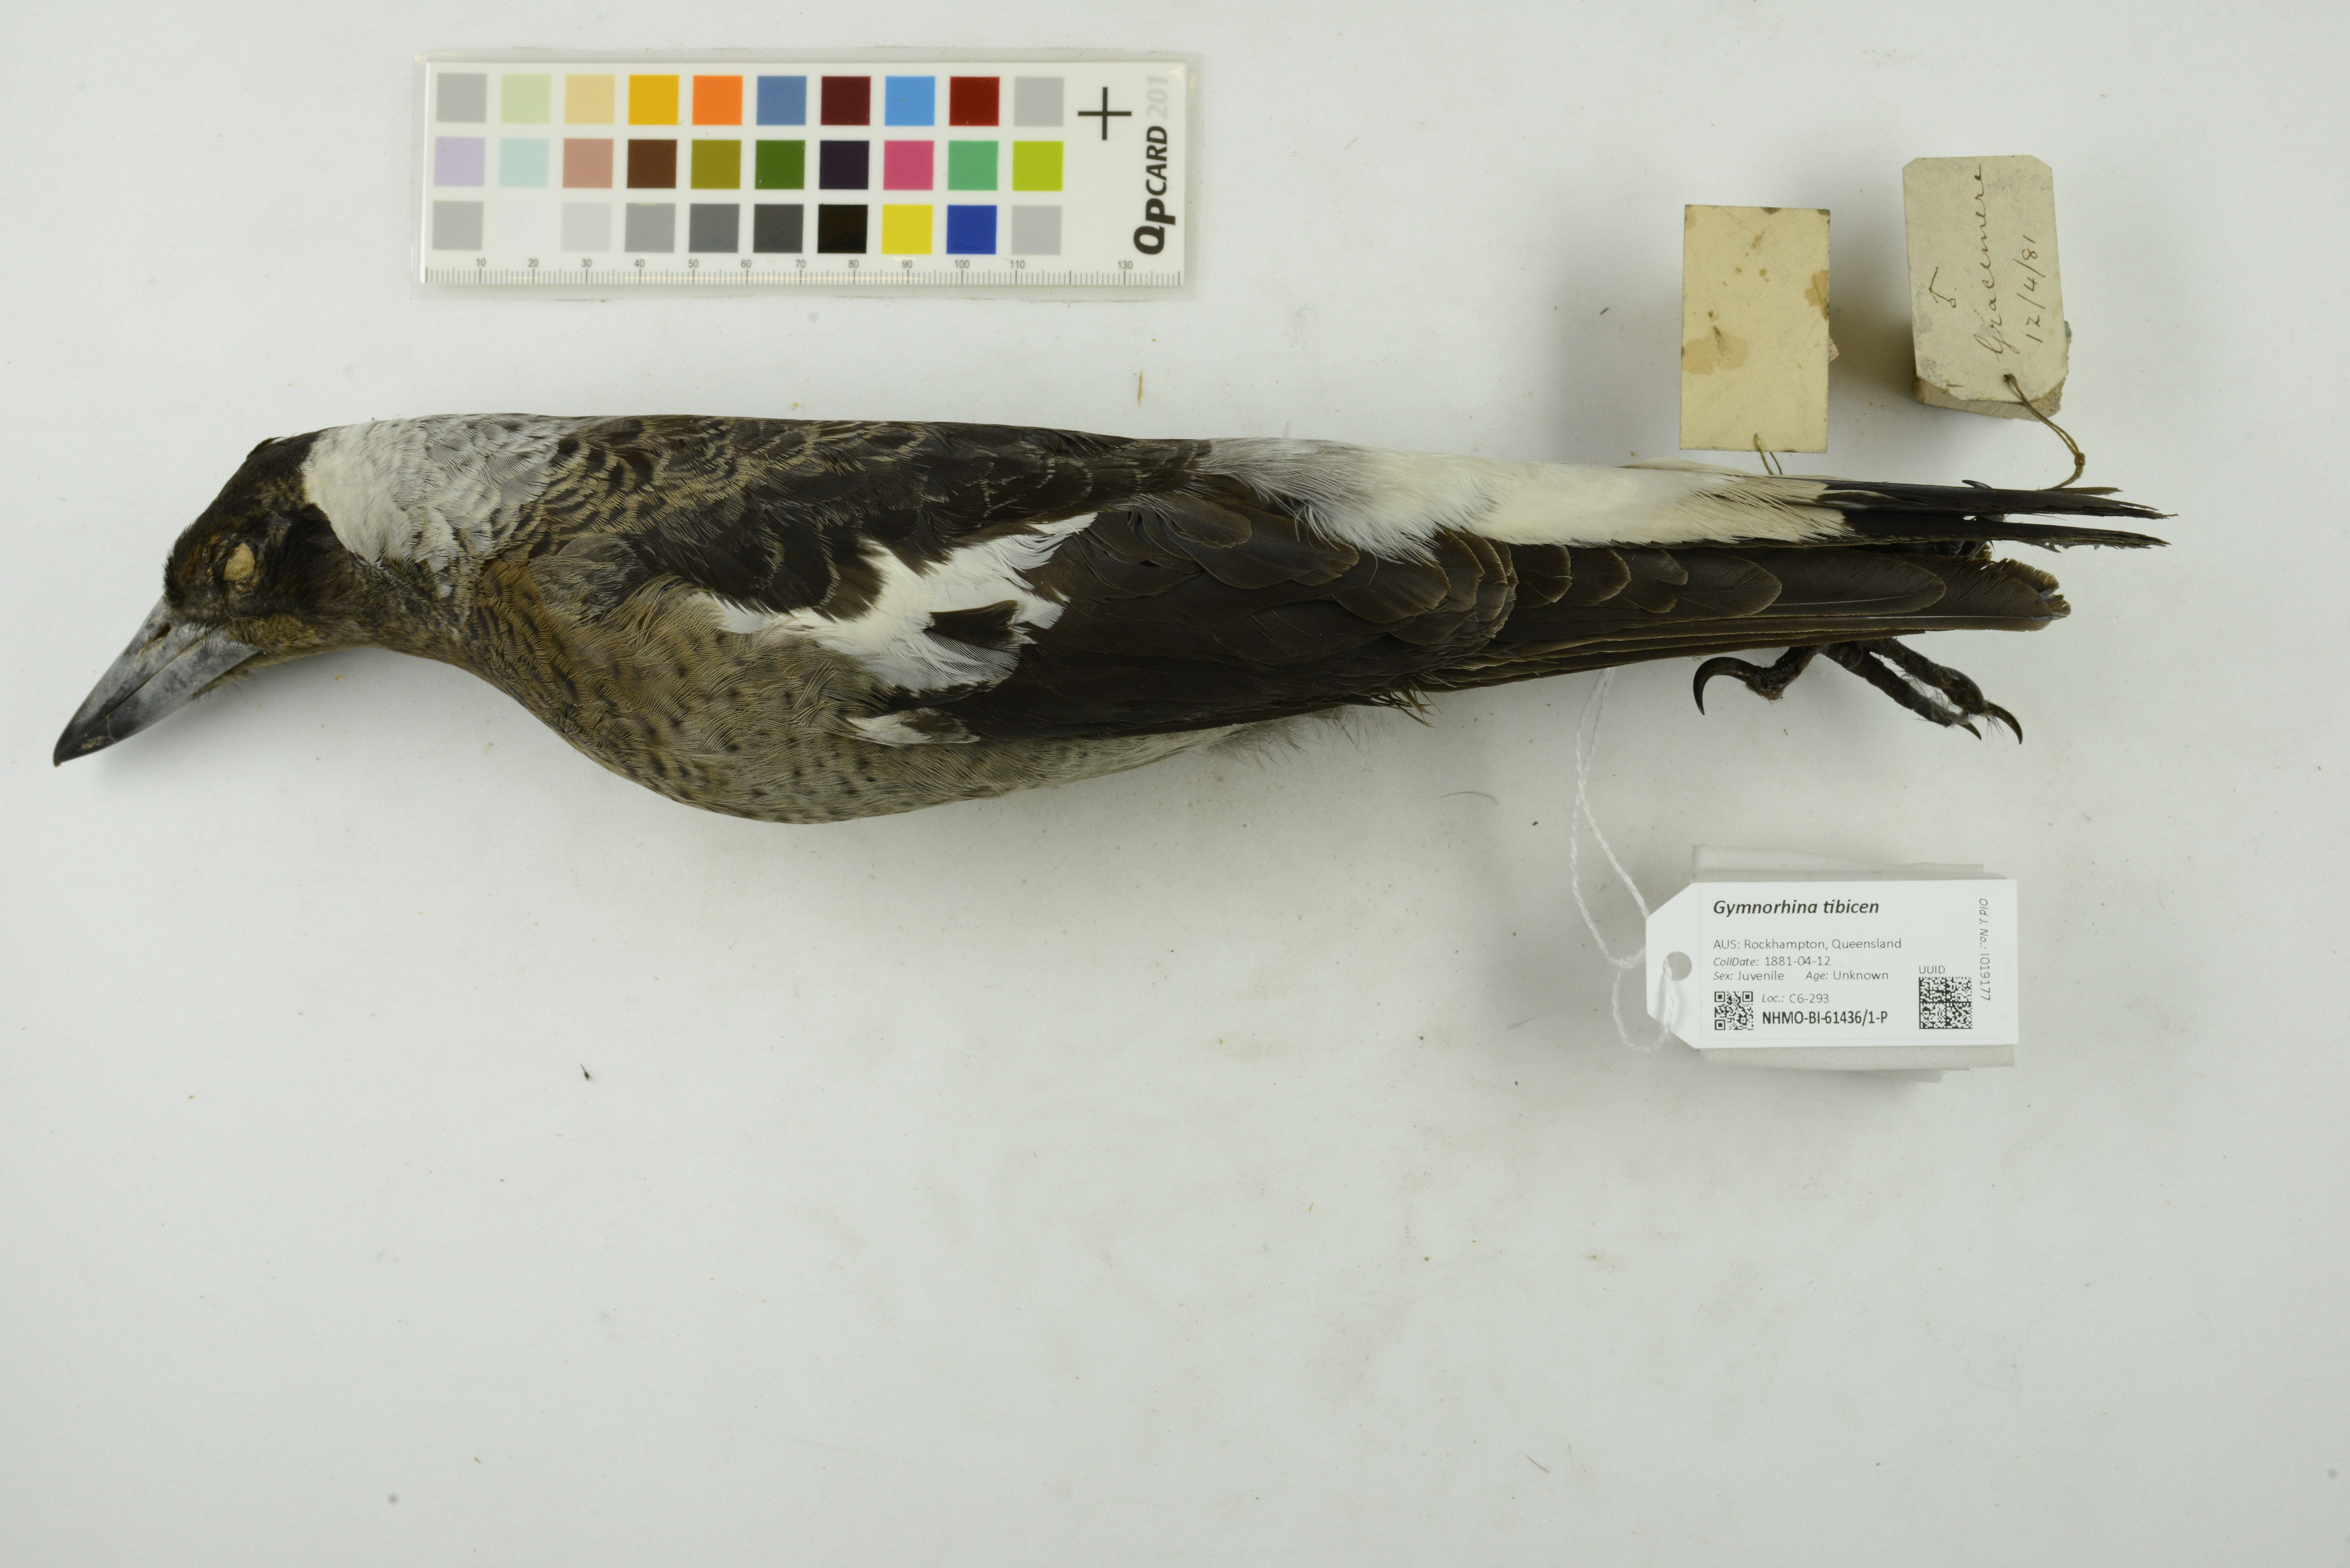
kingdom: Animalia
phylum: Chordata
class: Aves
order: Passeriformes
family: Cracticidae
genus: Gymnorhina
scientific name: Gymnorhina tibicen
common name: Australian magpie
